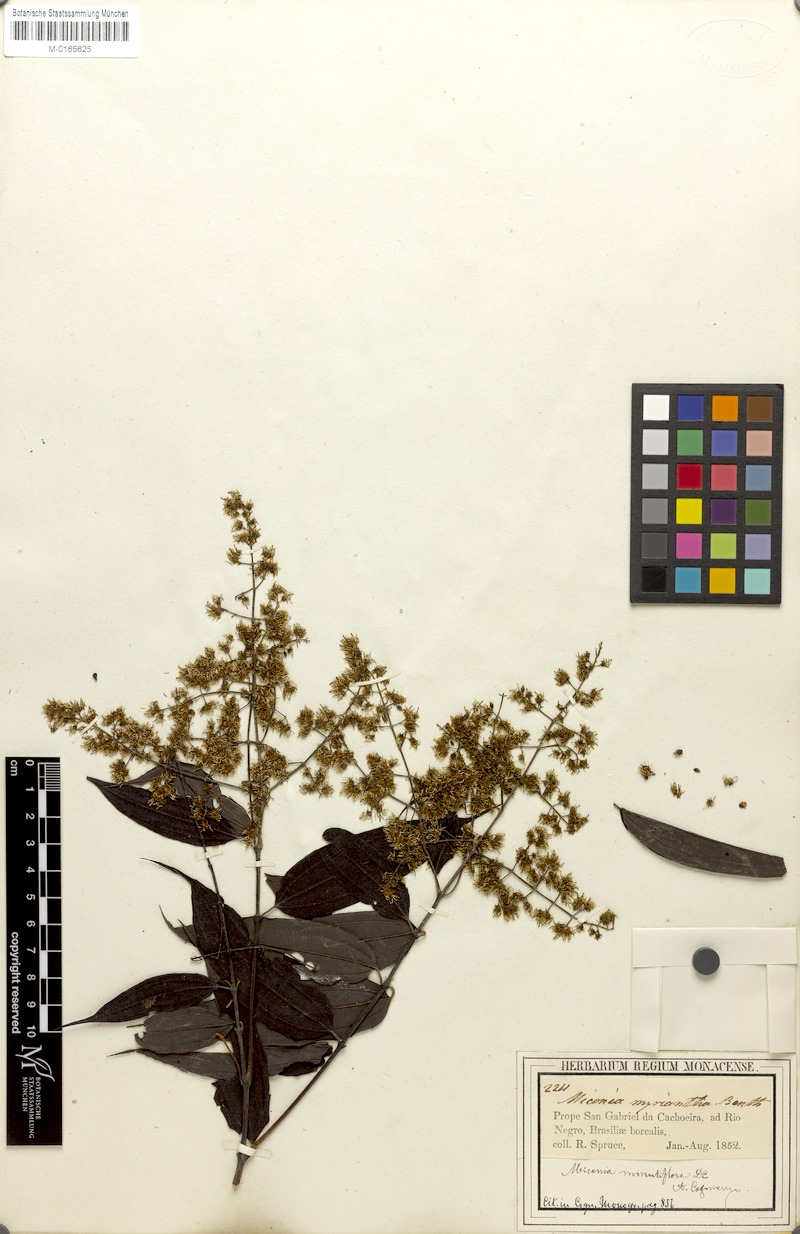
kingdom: Plantae
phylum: Tracheophyta
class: Magnoliopsida
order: Myrtales
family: Melastomataceae
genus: Miconia
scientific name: Miconia myriantha
